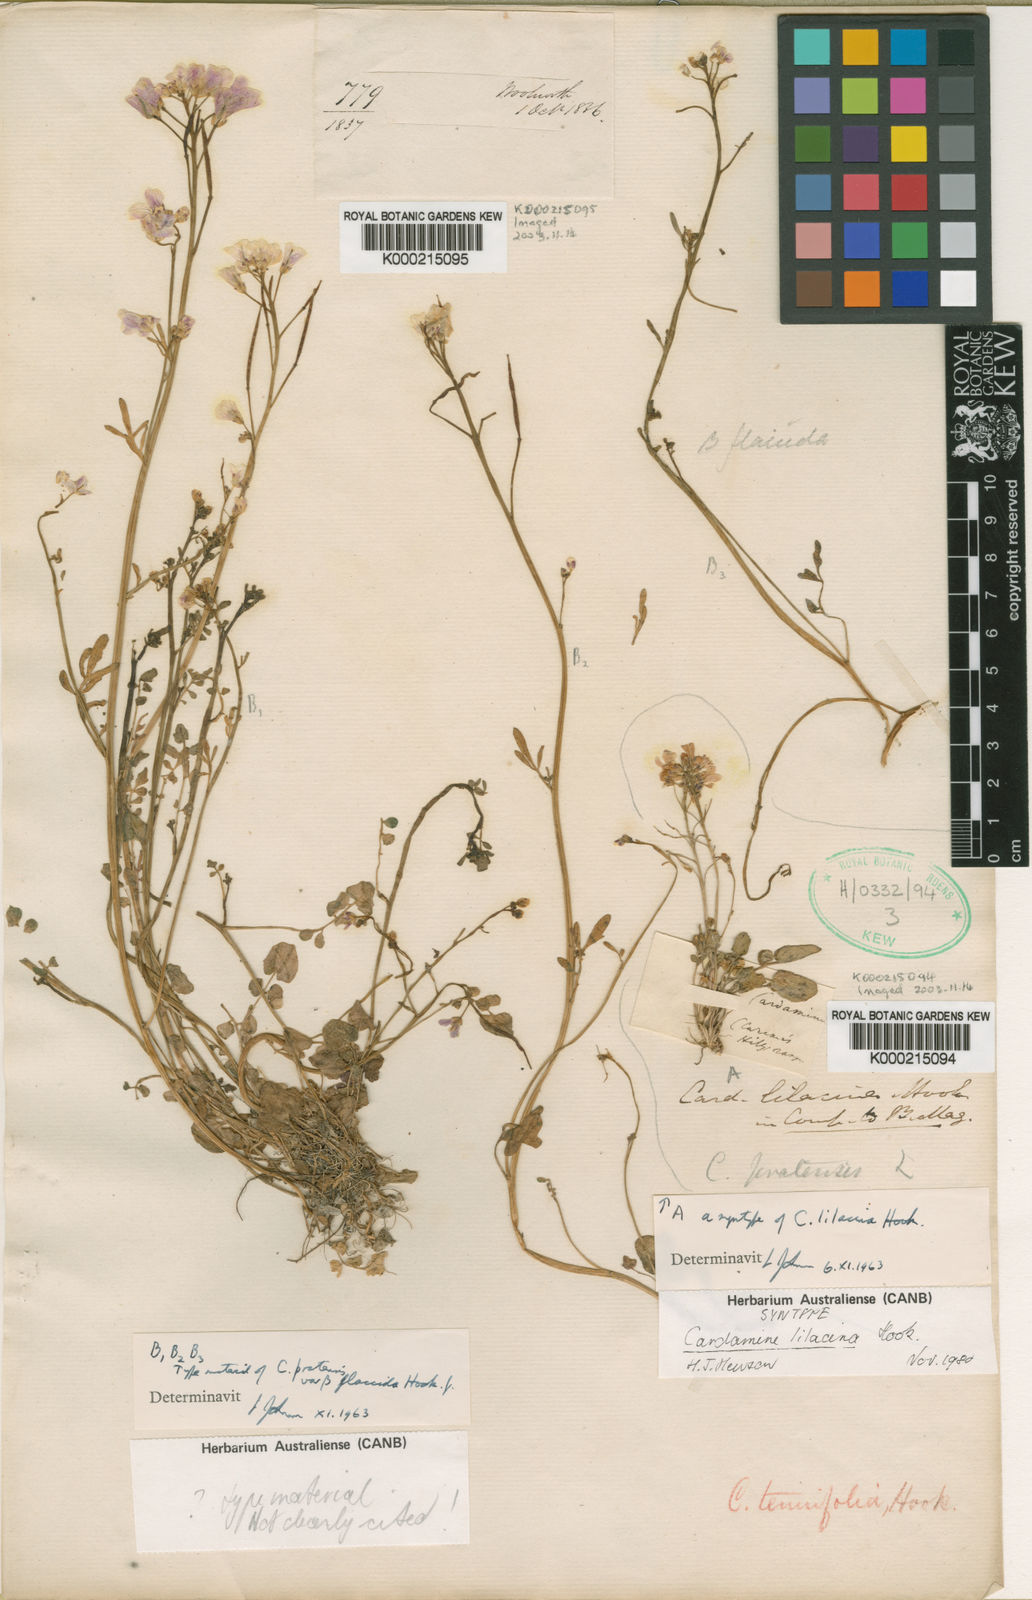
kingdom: Plantae
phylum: Tracheophyta
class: Magnoliopsida
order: Brassicales
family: Brassicaceae
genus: Cardamine
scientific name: Cardamine lilacina
